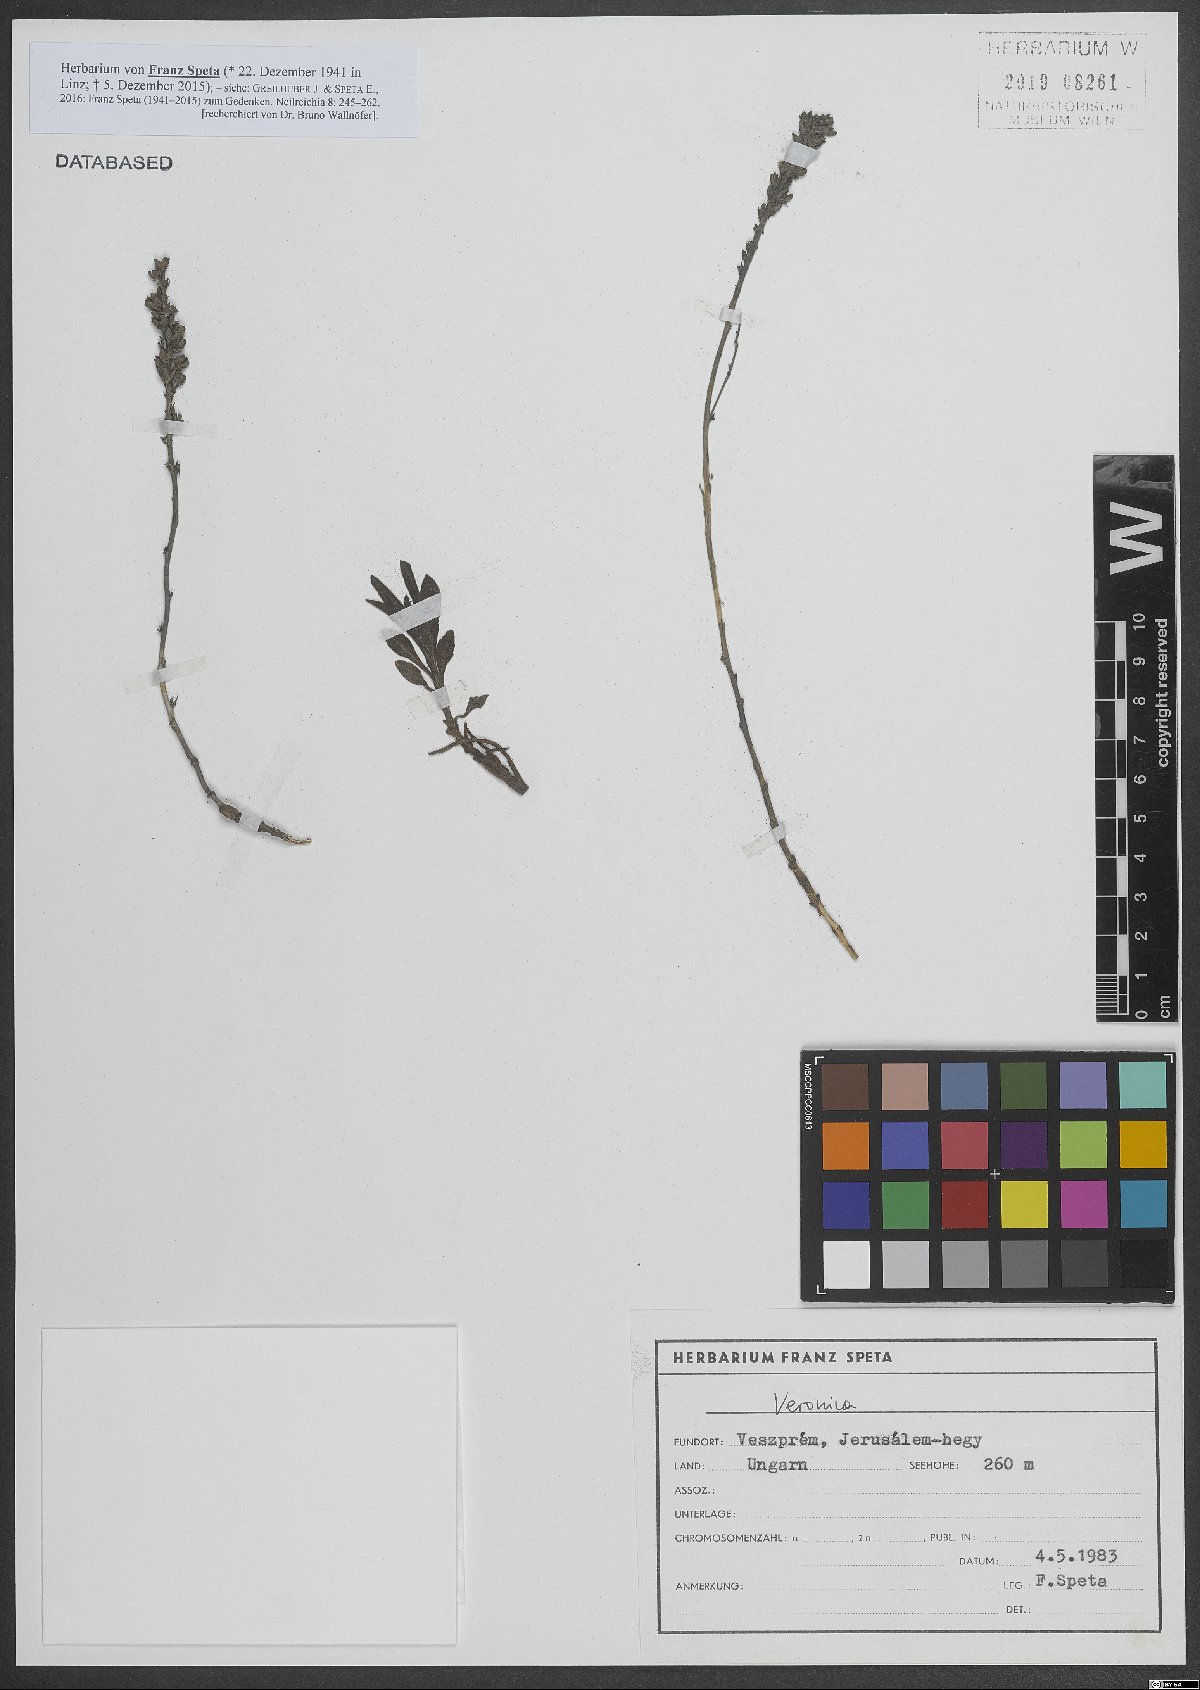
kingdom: Plantae
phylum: Tracheophyta
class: Magnoliopsida
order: Lamiales
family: Plantaginaceae
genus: Veronica
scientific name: Veronica
